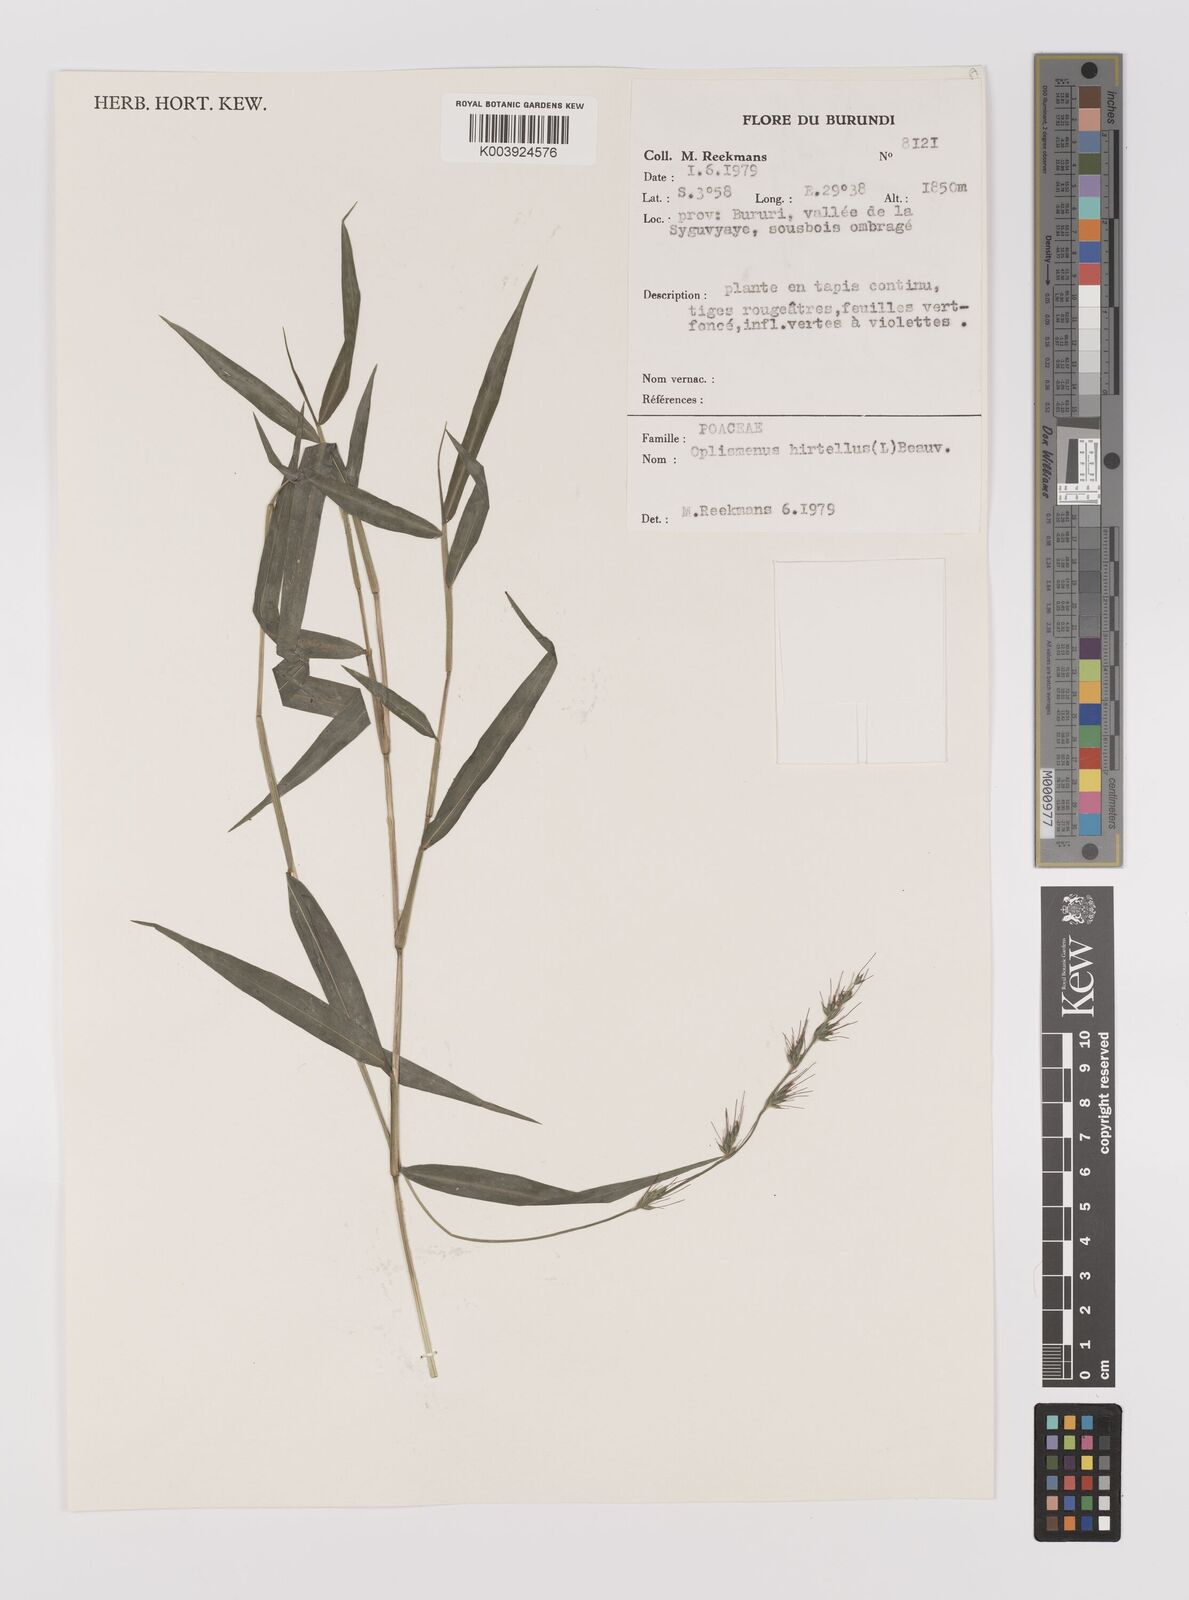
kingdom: Plantae
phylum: Tracheophyta
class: Liliopsida
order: Poales
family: Poaceae
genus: Oplismenus
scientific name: Oplismenus hirtellus
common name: Basketgrass
